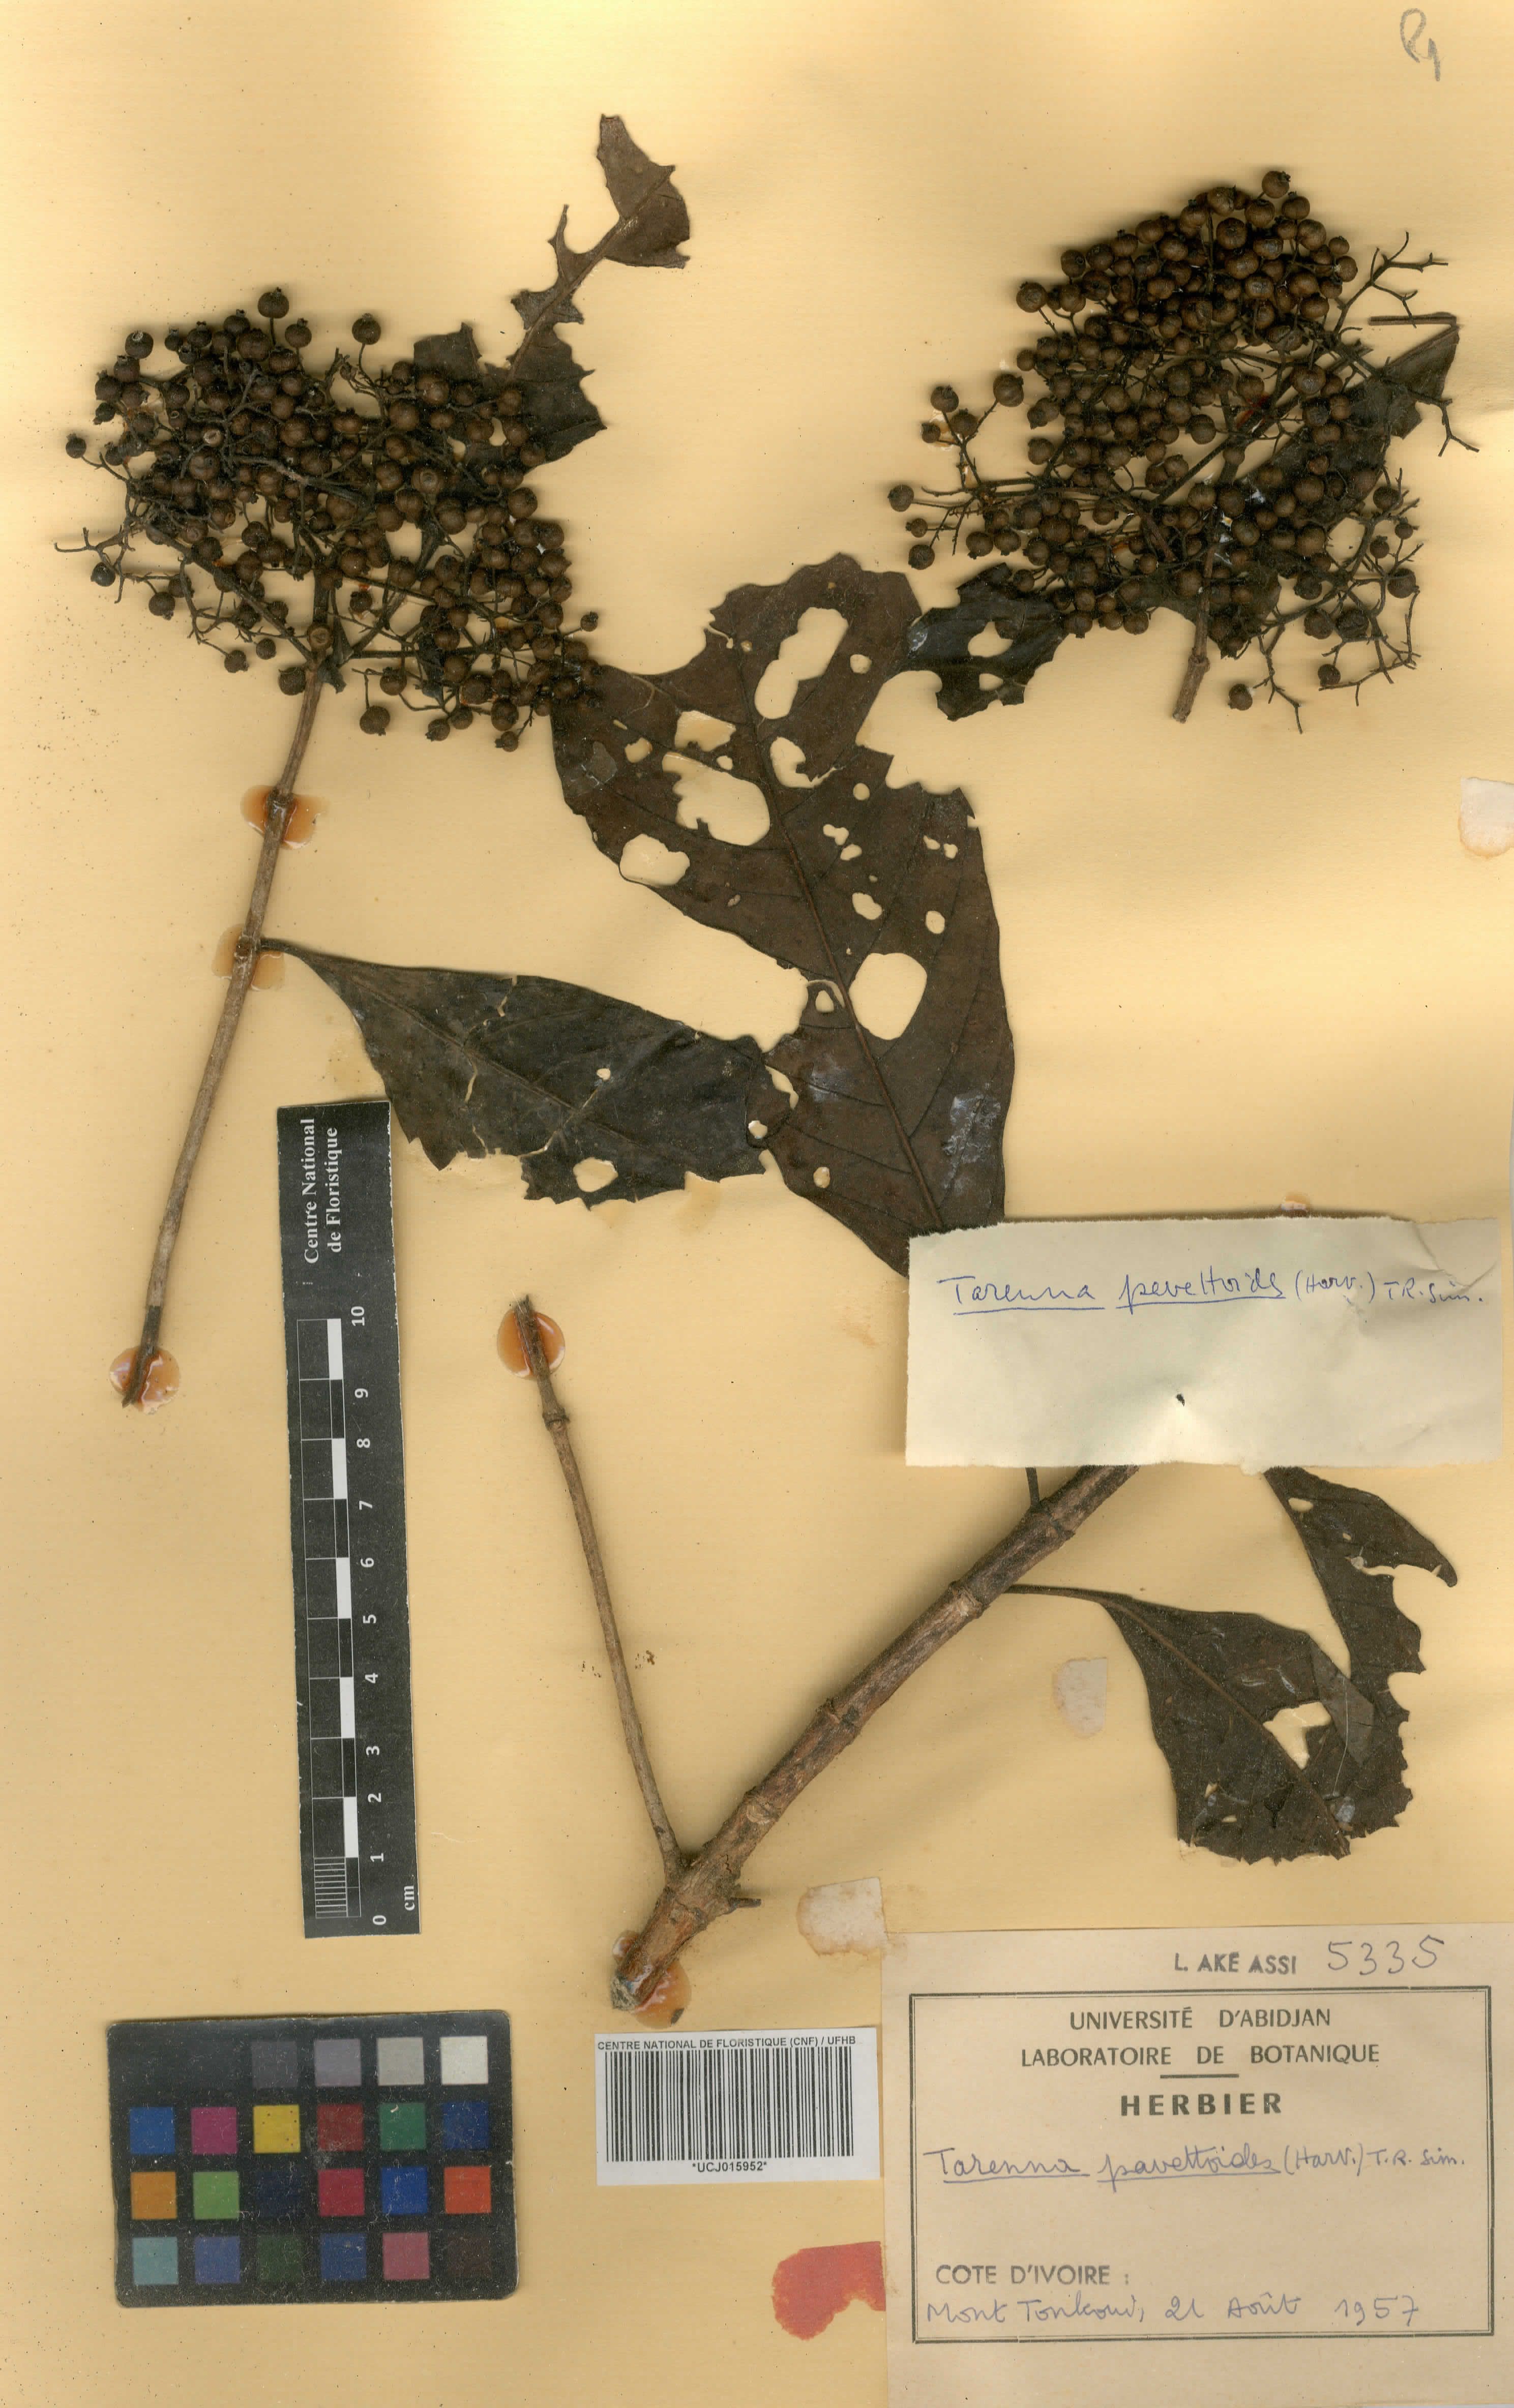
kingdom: Plantae
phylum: Tracheophyta
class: Magnoliopsida
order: Gentianales
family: Rubiaceae
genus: Tarenna
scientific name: Tarenna pavettoides
